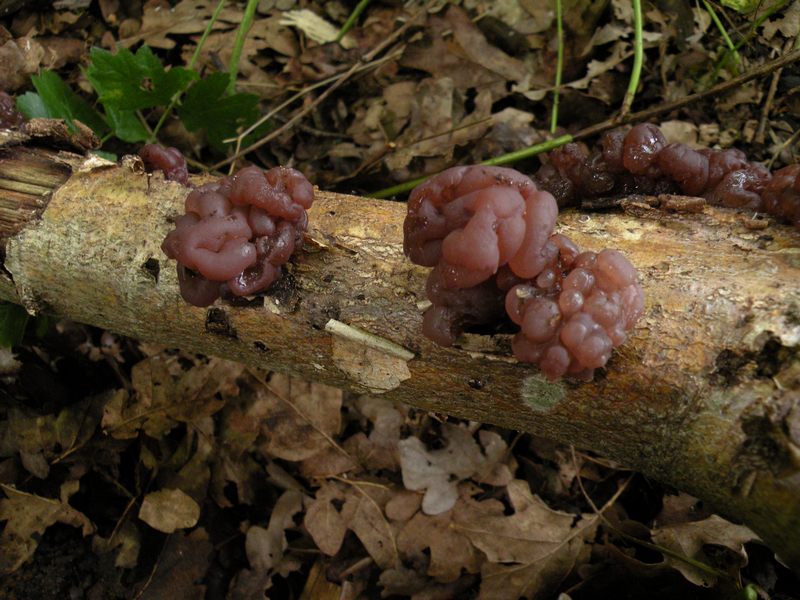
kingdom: Fungi
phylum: Ascomycota
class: Leotiomycetes
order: Helotiales
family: Gelatinodiscaceae
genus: Ascotremella
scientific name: Ascotremella faginea
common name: hjerne-bævreskive
